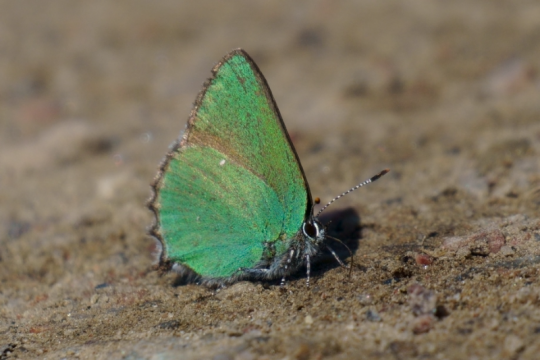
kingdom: Animalia
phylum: Arthropoda
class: Insecta
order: Lepidoptera
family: Lycaenidae
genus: Callophrys
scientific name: Callophrys rubi
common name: Green Hairstreak
